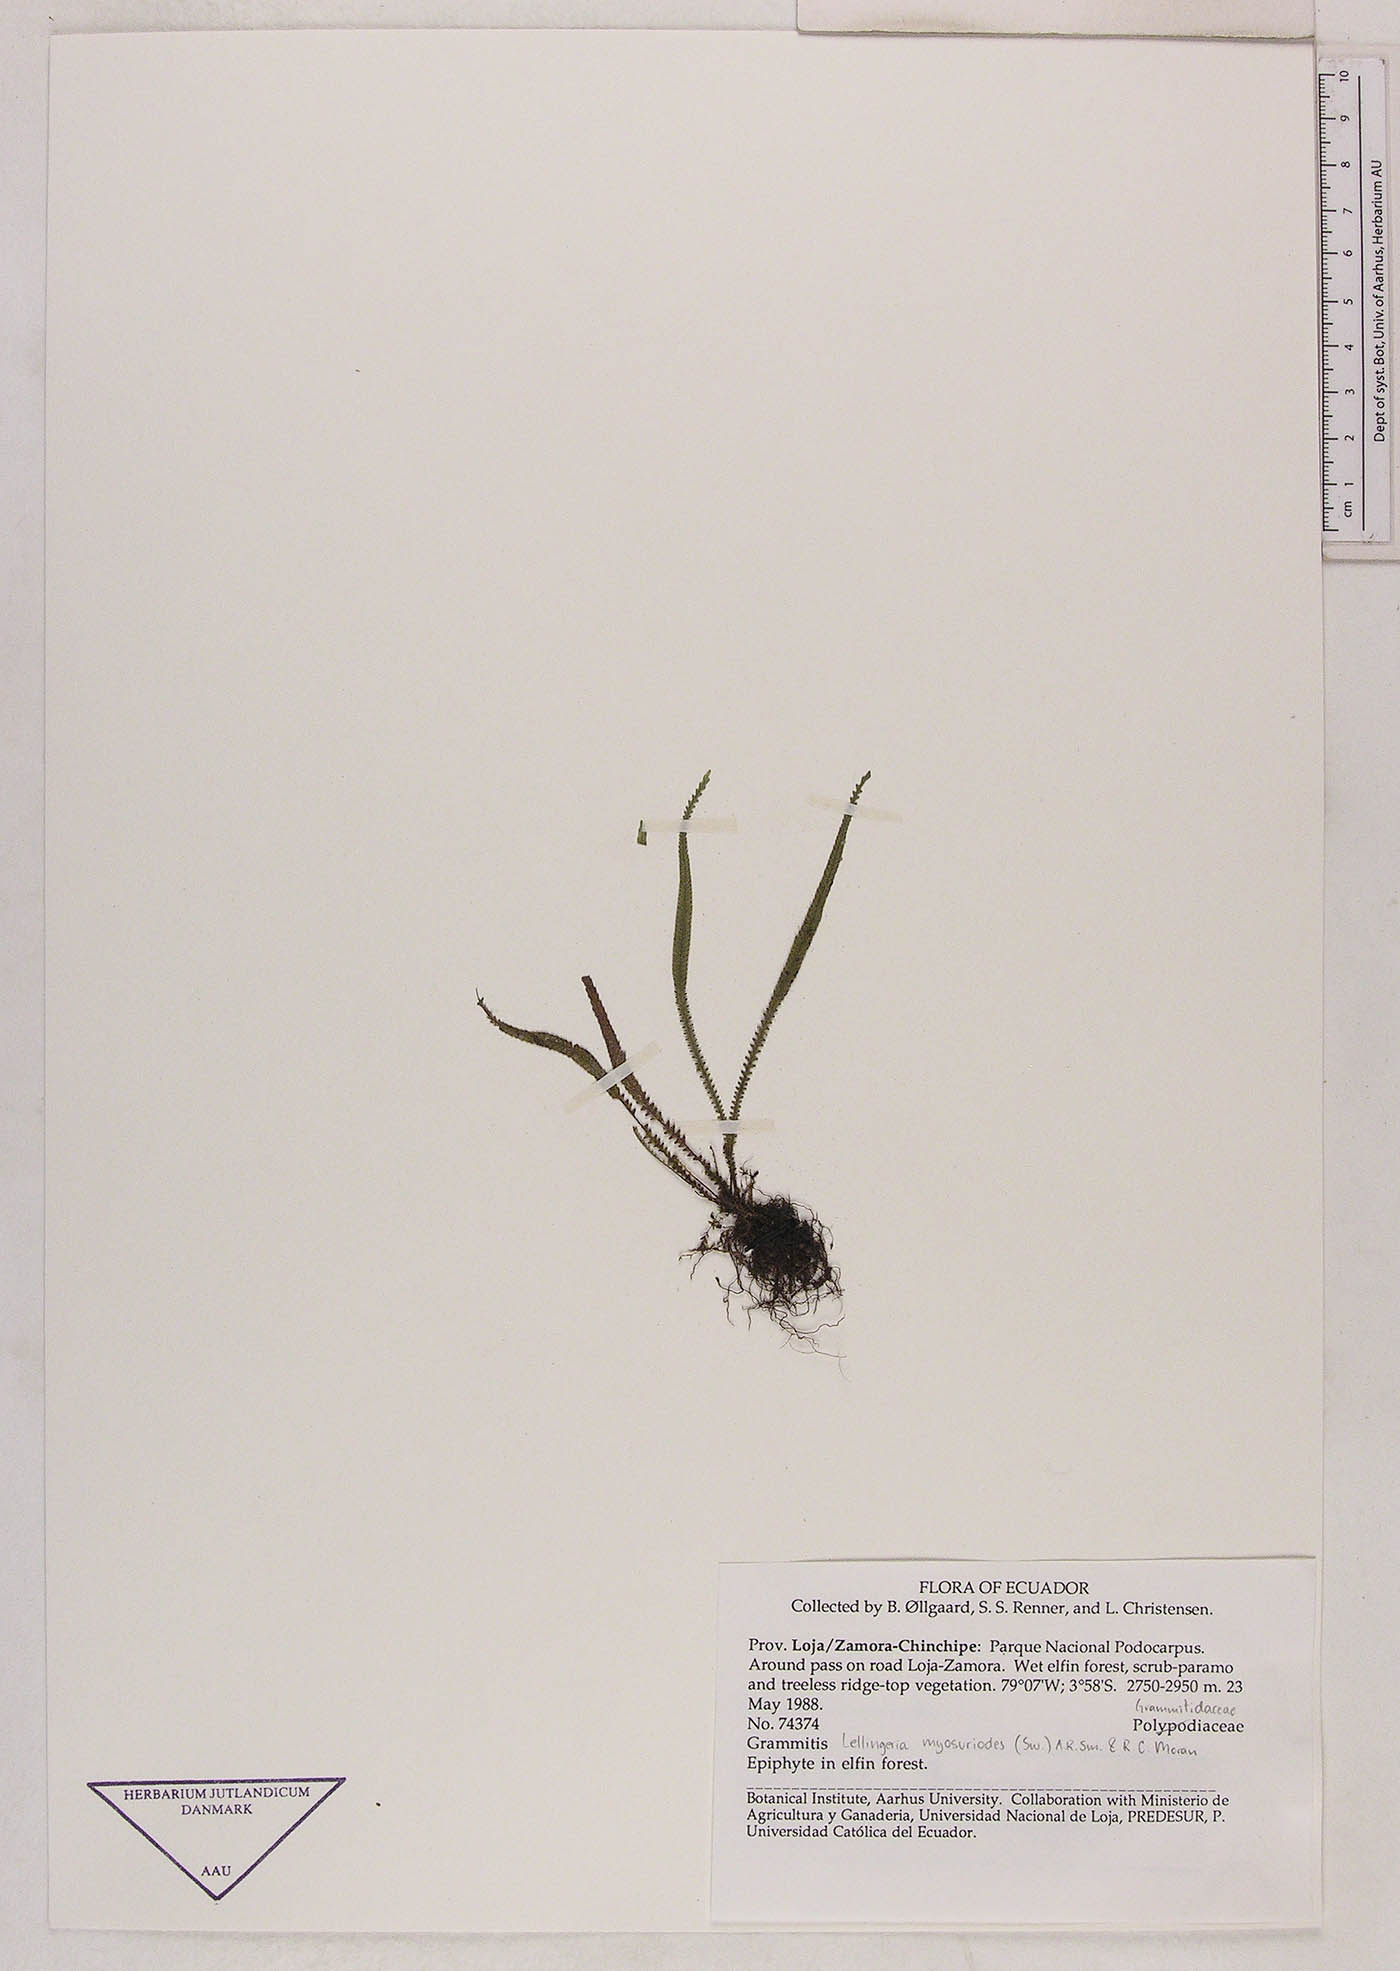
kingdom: Plantae
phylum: Tracheophyta
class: Polypodiopsida
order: Polypodiales
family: Polypodiaceae
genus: Stenogrammitis
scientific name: Stenogrammitis jamesonii
